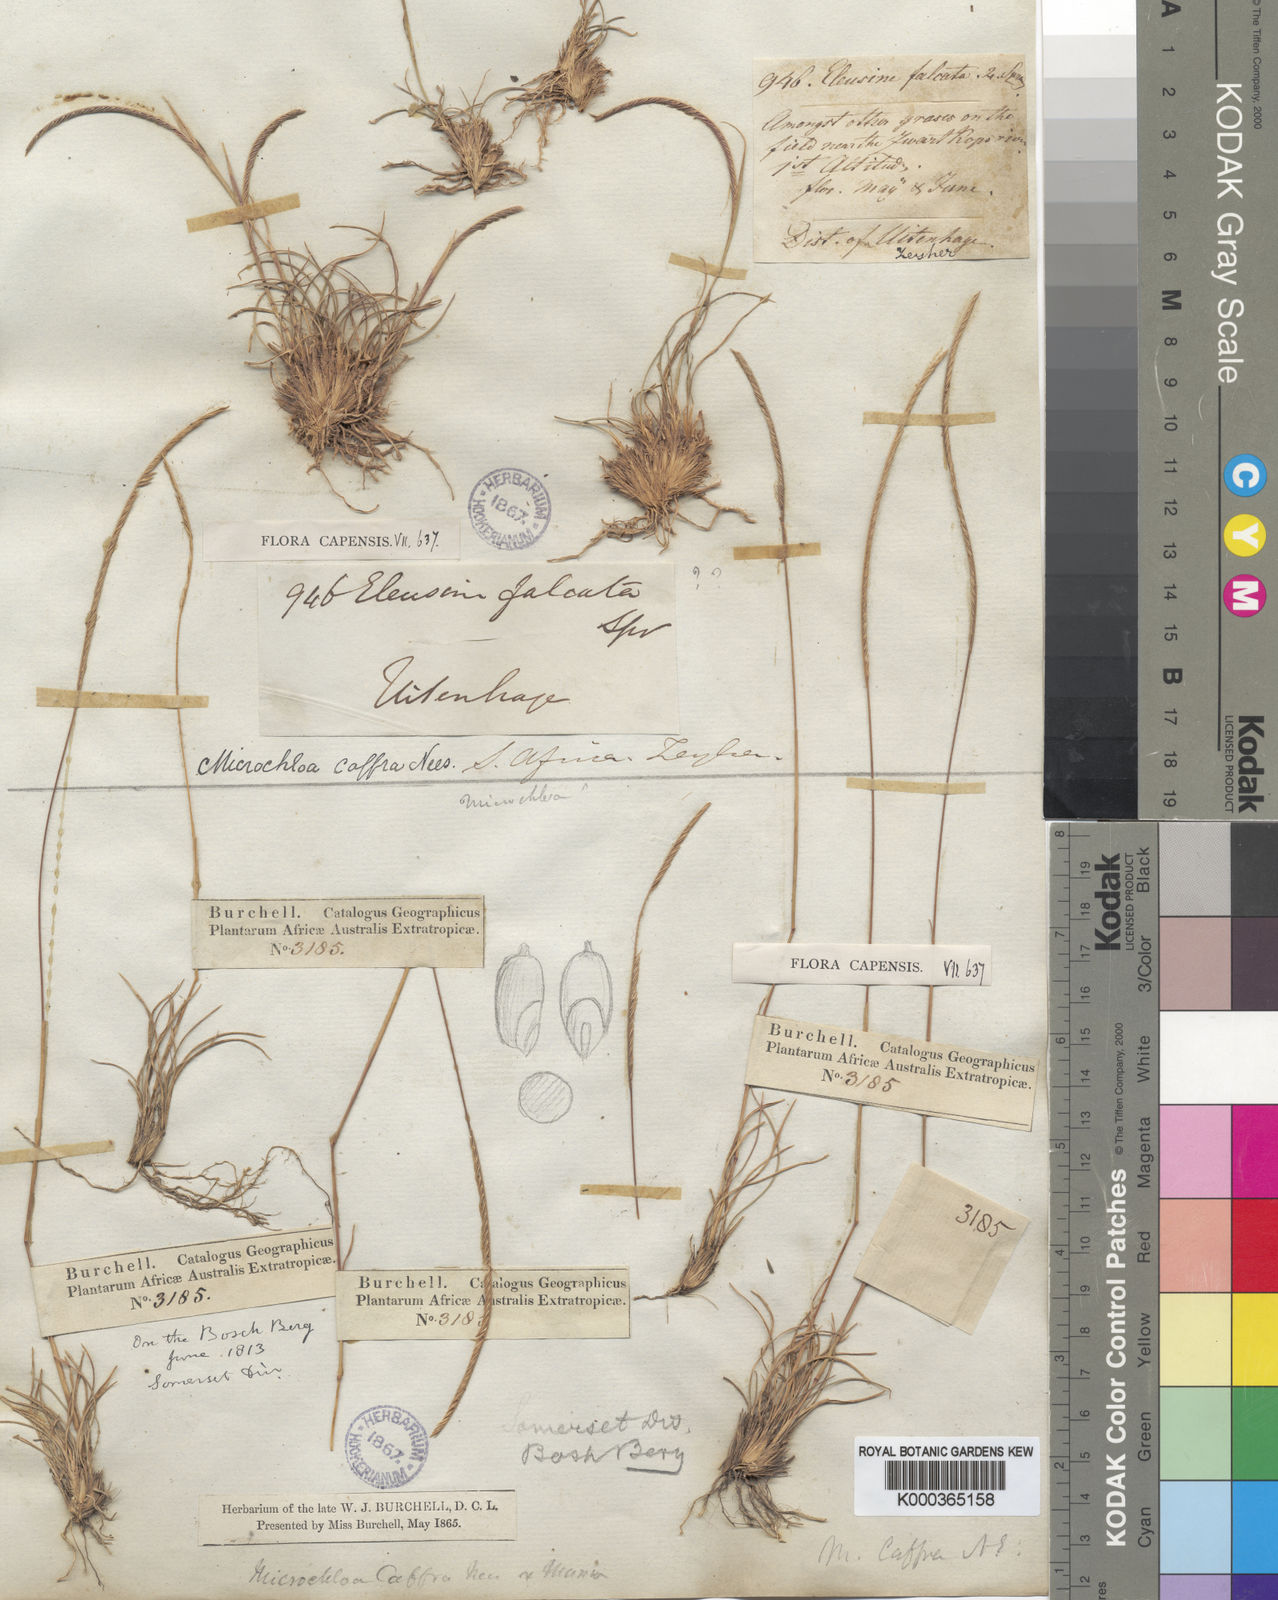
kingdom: Plantae
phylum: Tracheophyta
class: Liliopsida
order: Poales
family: Poaceae
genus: Microchloa
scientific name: Microchloa caffra
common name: Pincushion grass
